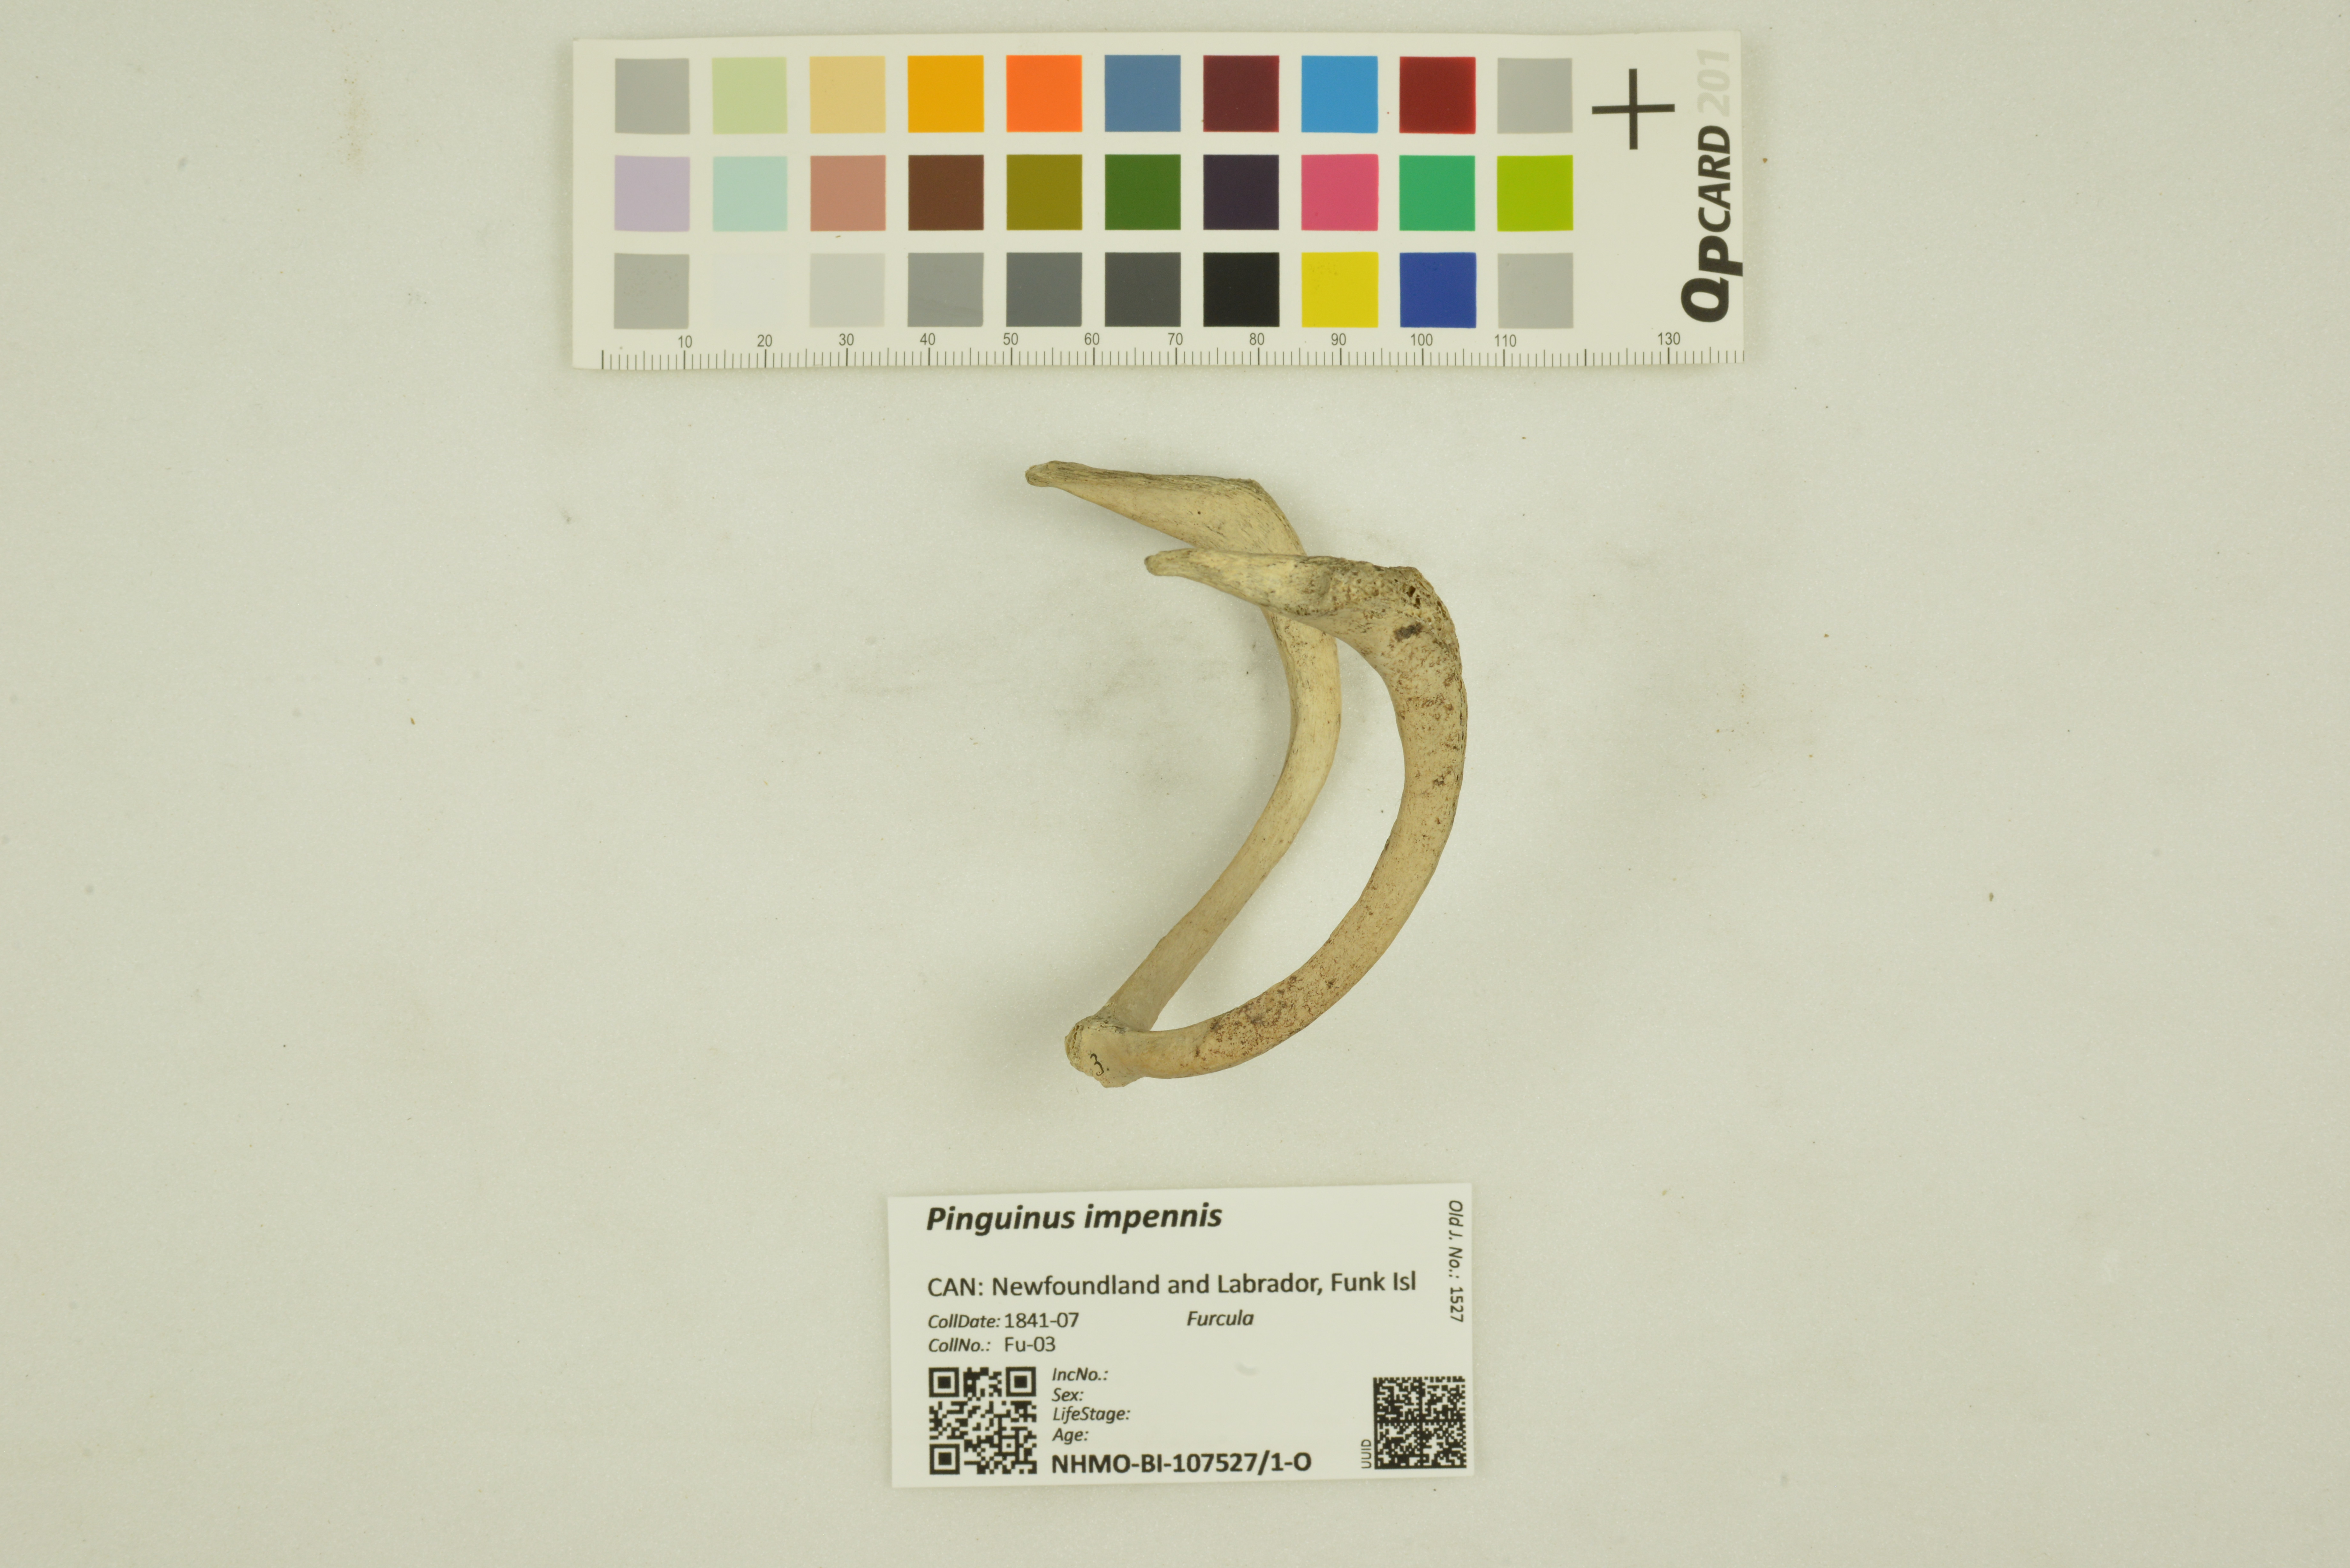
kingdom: Animalia
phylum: Chordata
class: Aves
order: Charadriiformes
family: Alcidae
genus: Pinguinus
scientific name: Pinguinus impennis
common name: Great auk
